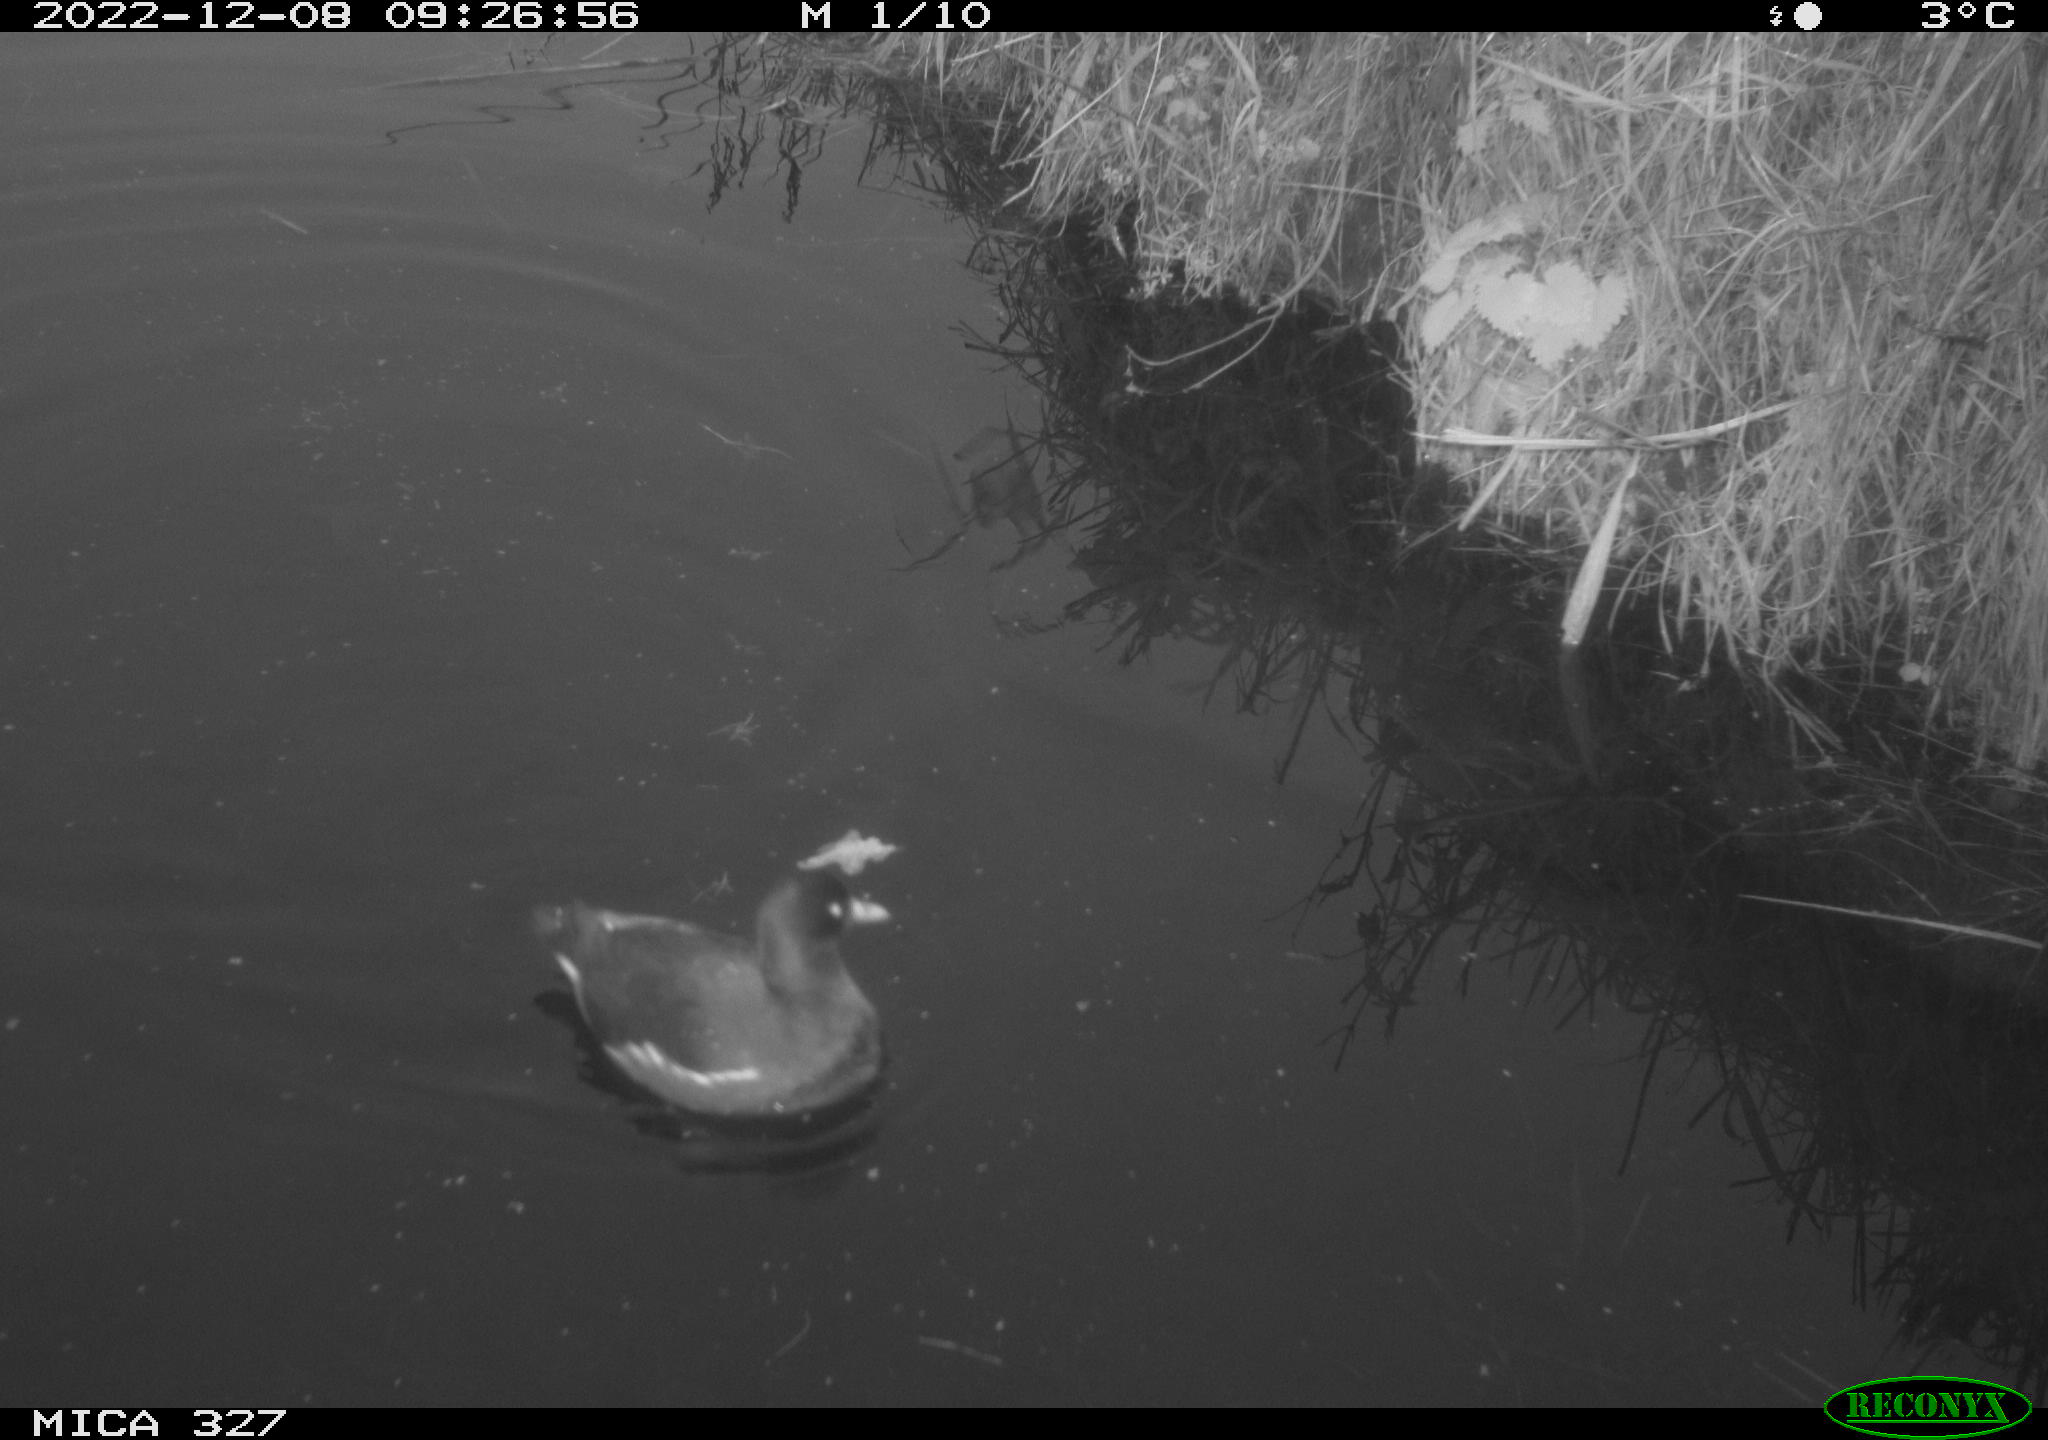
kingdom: Animalia
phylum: Chordata
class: Aves
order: Gruiformes
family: Rallidae
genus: Gallinula
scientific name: Gallinula chloropus
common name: Common moorhen
